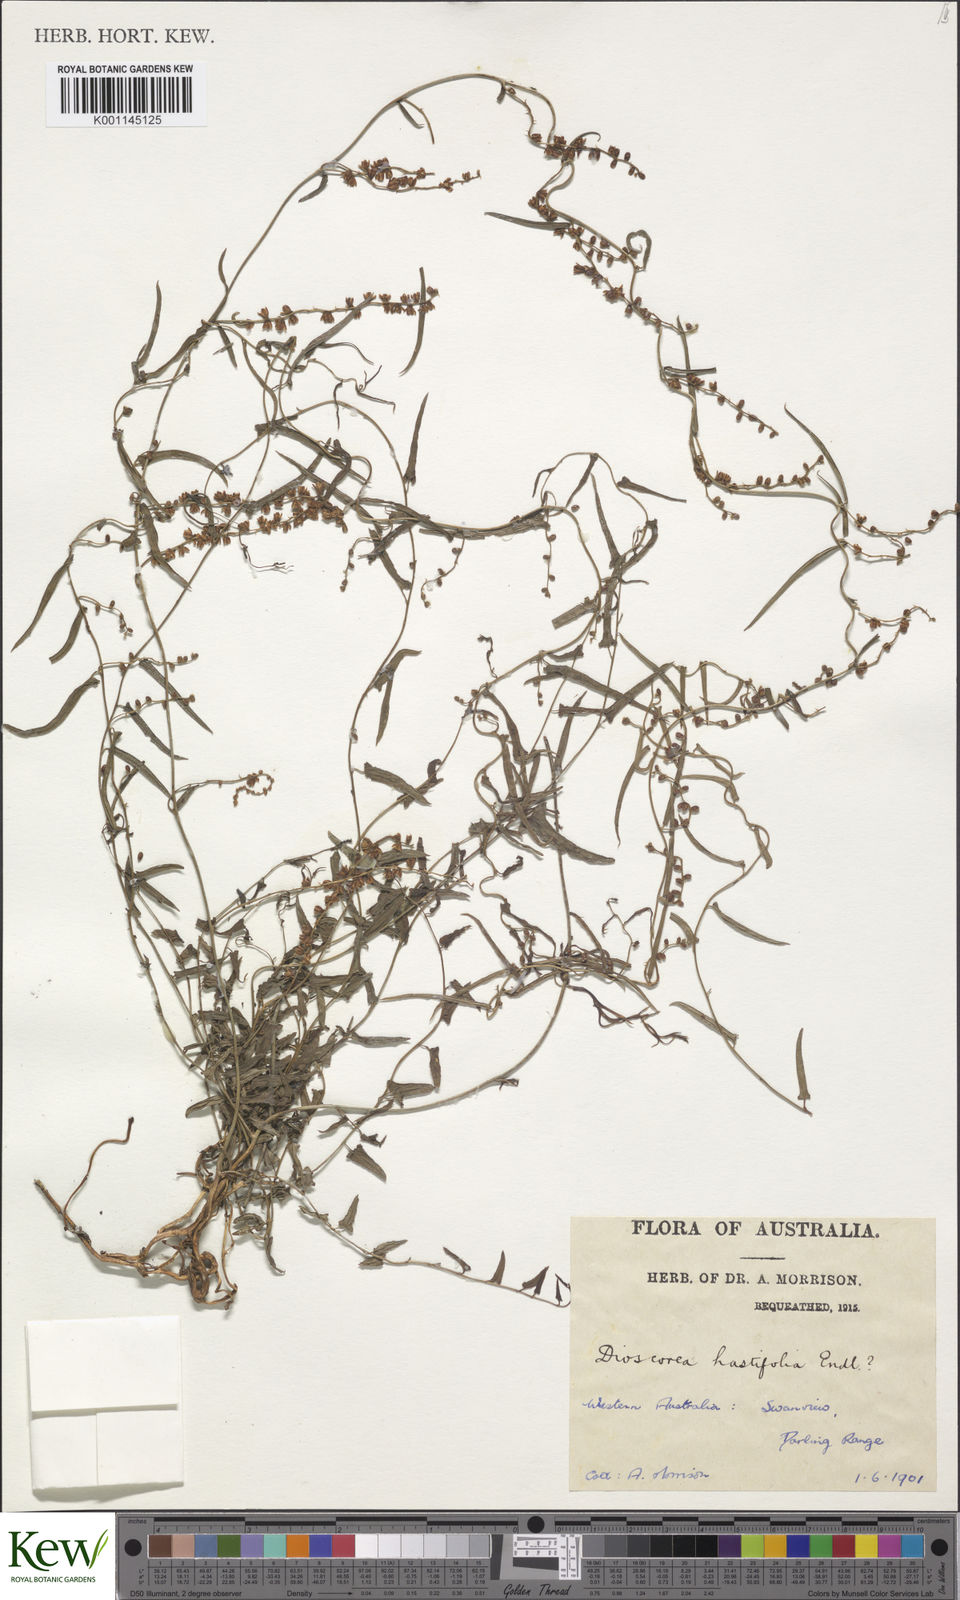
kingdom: Plantae
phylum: Tracheophyta
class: Liliopsida
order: Dioscoreales
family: Dioscoreaceae
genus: Dioscorea
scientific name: Dioscorea
